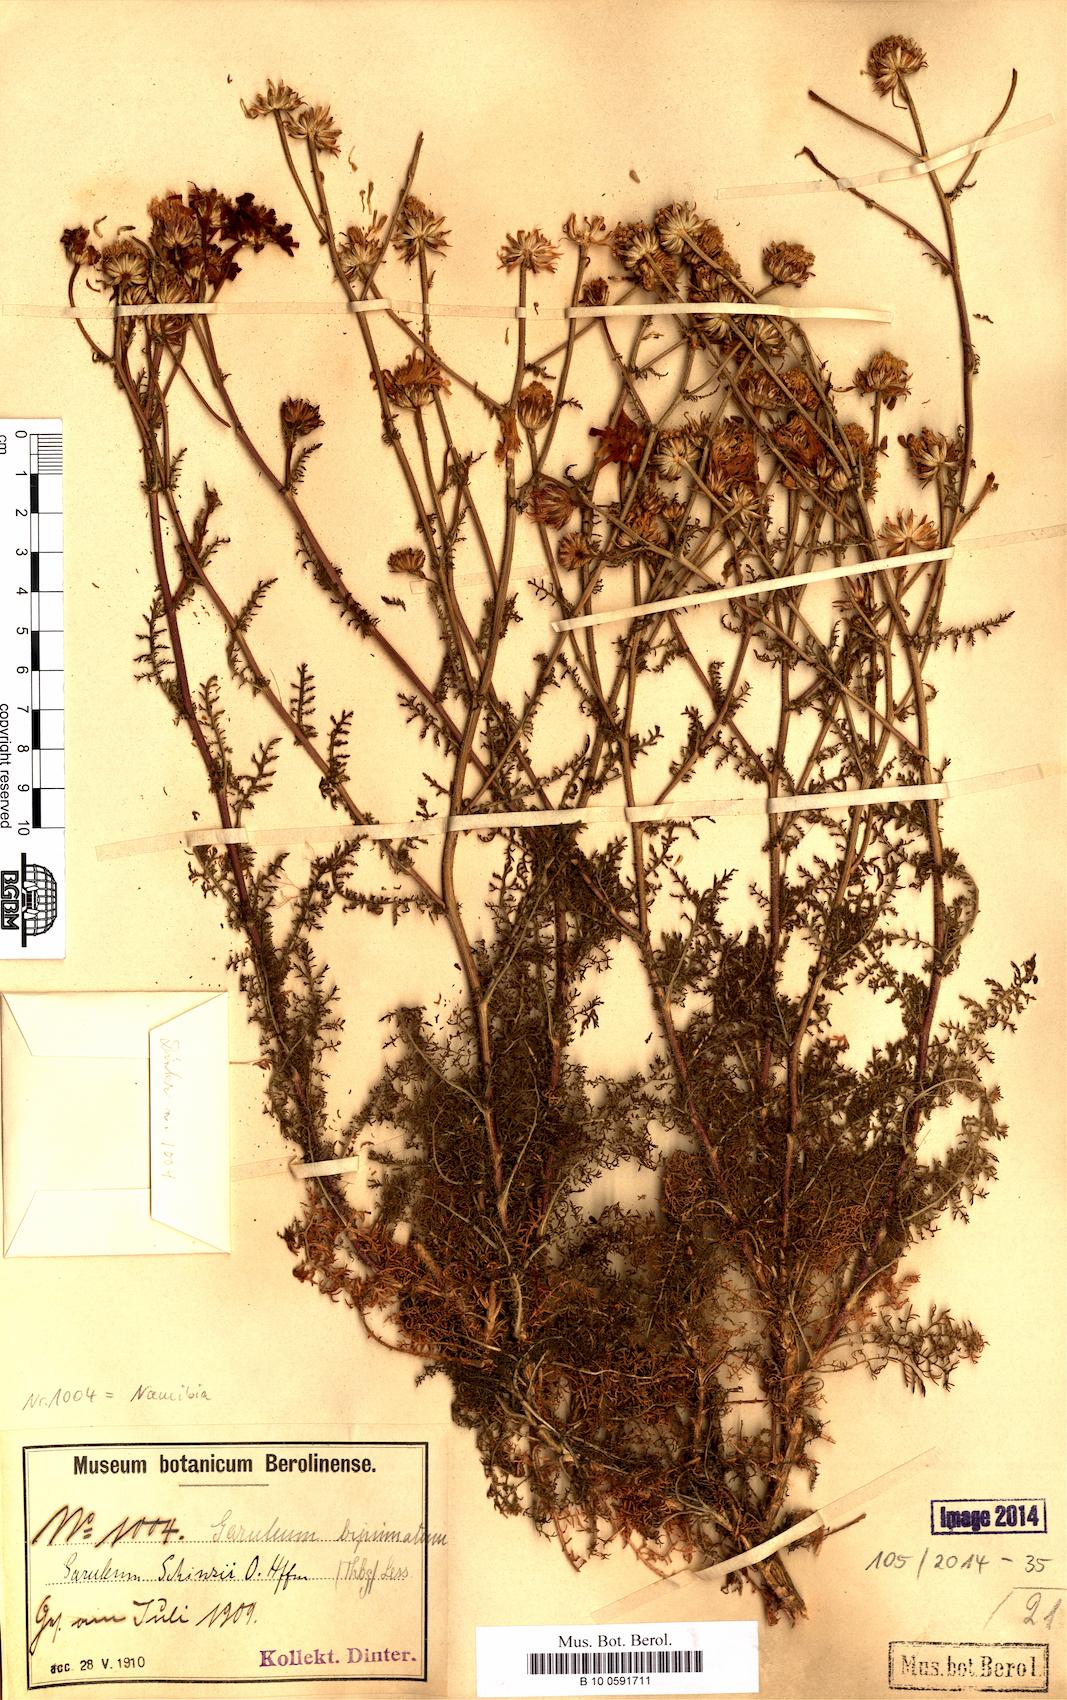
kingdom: Plantae
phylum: Tracheophyta
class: Magnoliopsida
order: Asterales
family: Asteraceae
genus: Garuleum
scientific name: Garuleum schinzii
